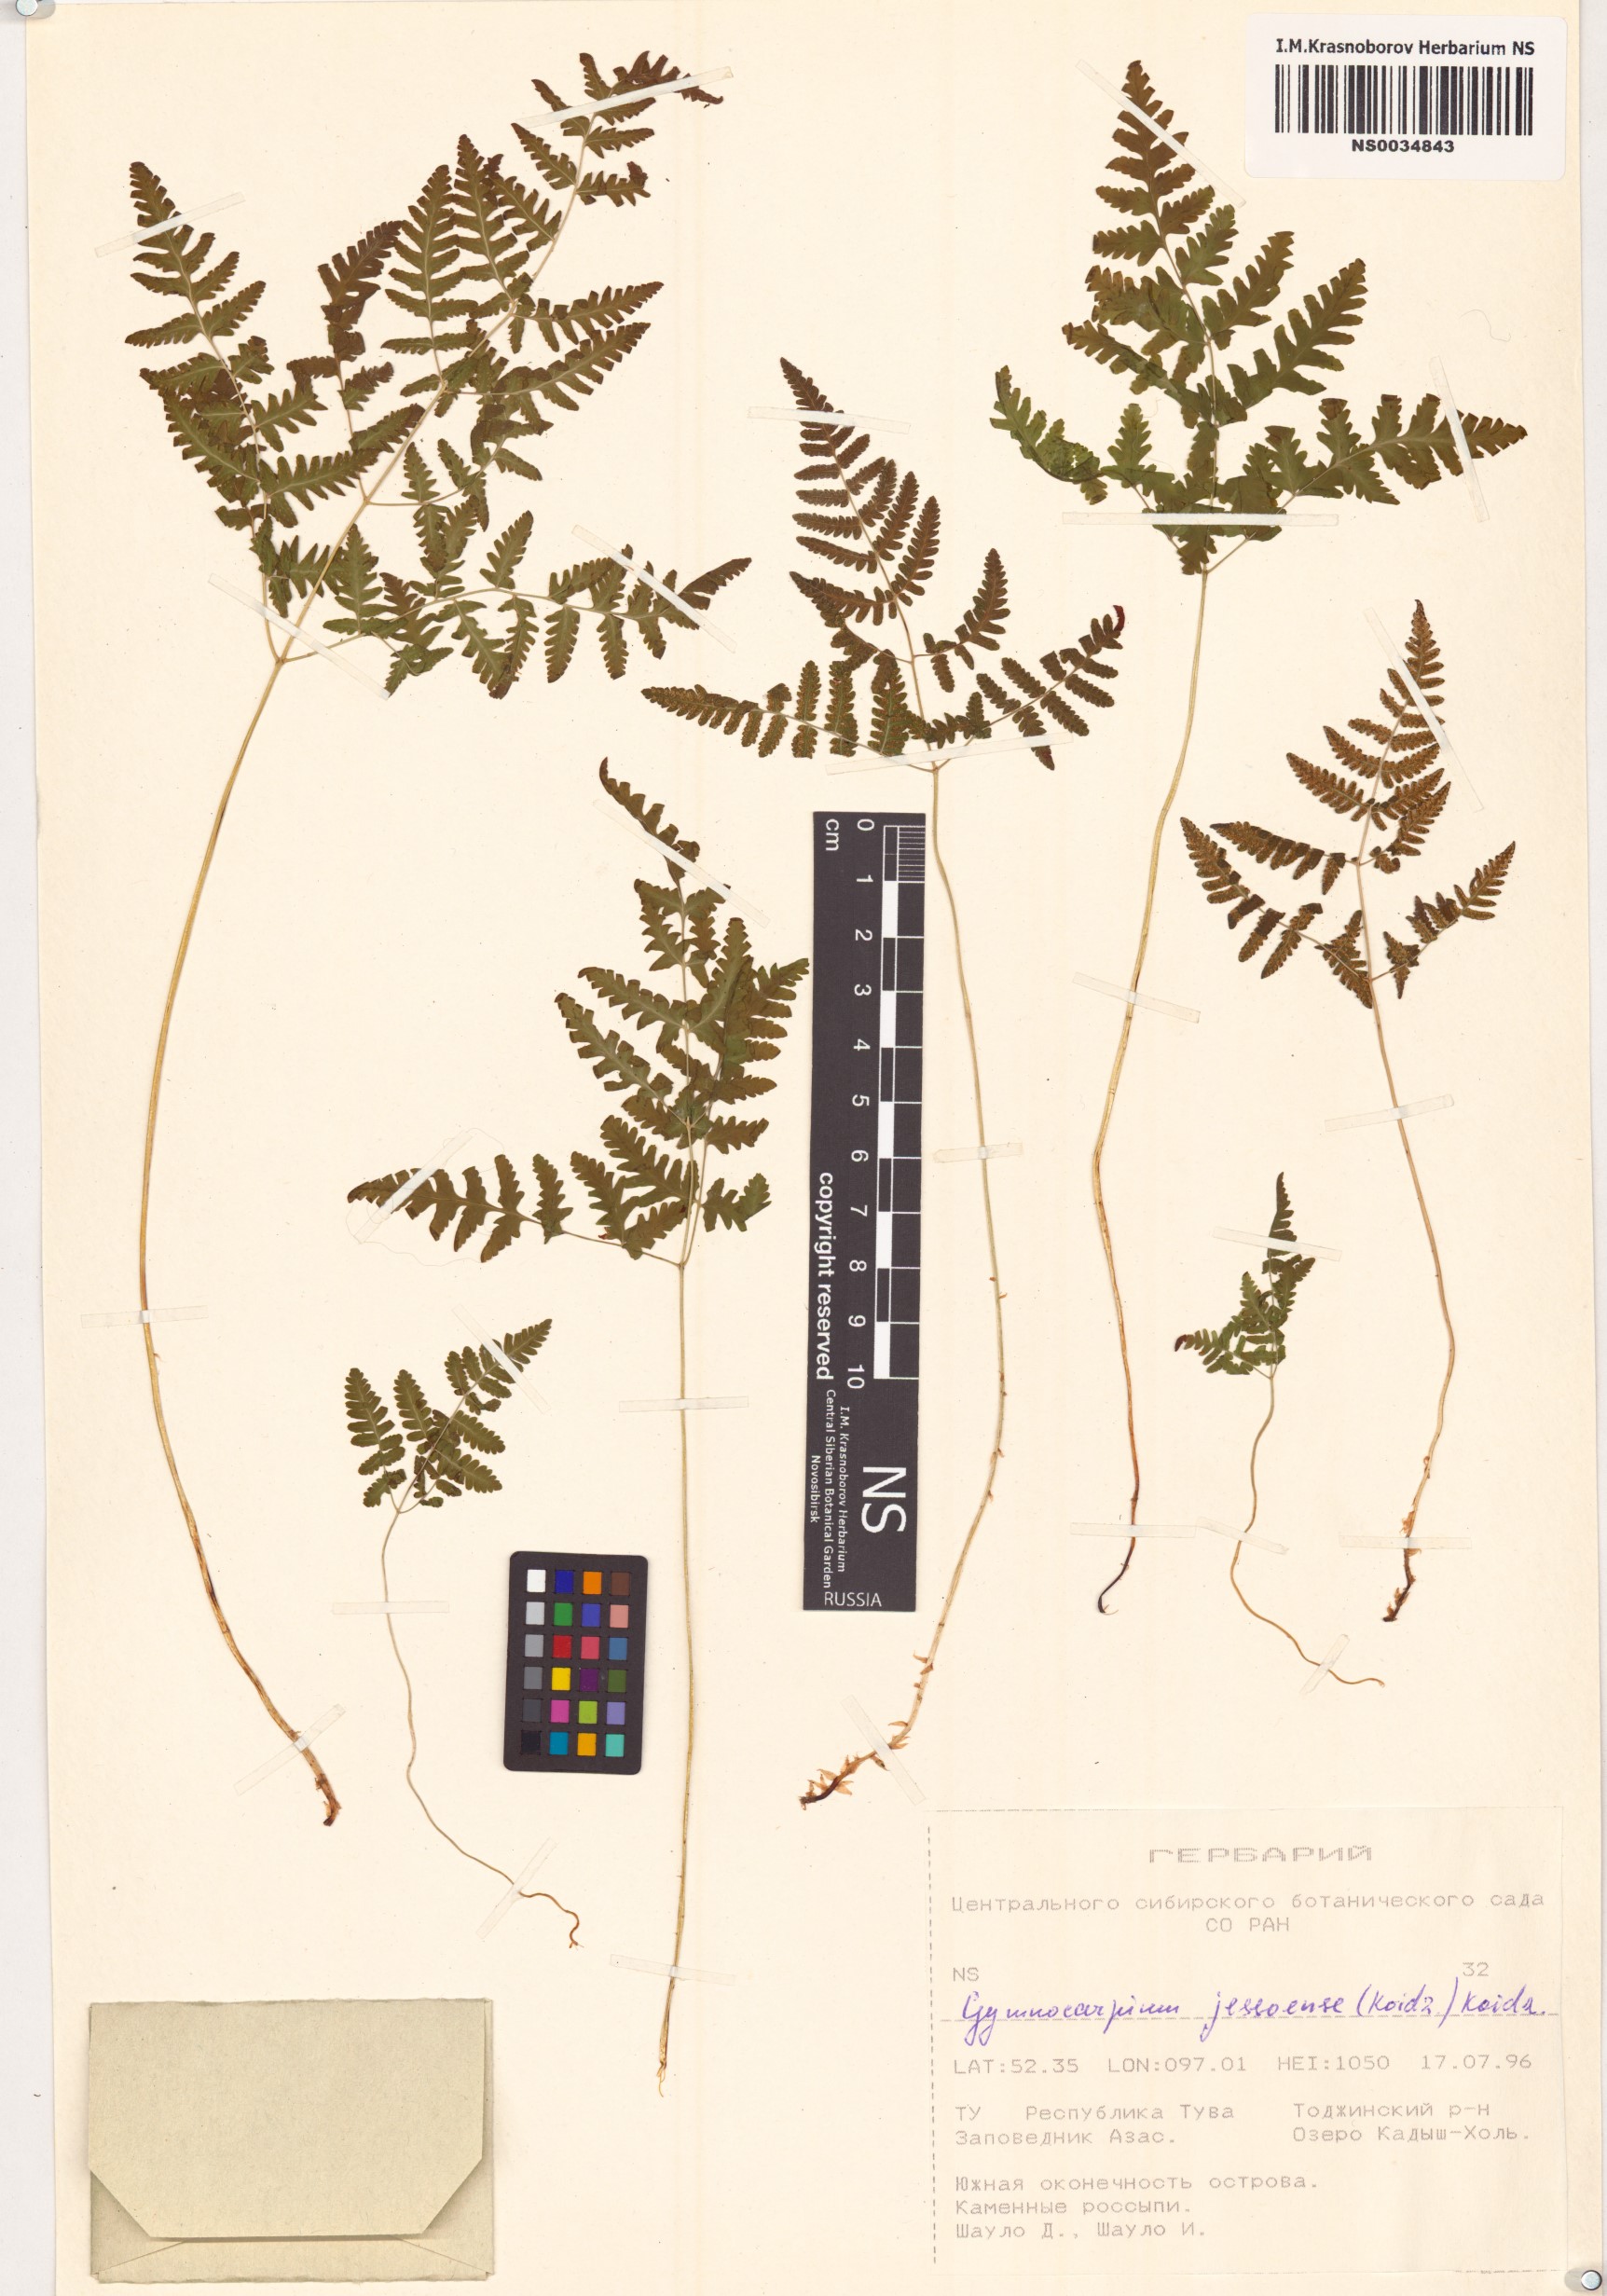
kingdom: Plantae
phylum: Tracheophyta
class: Polypodiopsida
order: Polypodiales
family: Cystopteridaceae
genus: Gymnocarpium
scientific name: Gymnocarpium jessoense
